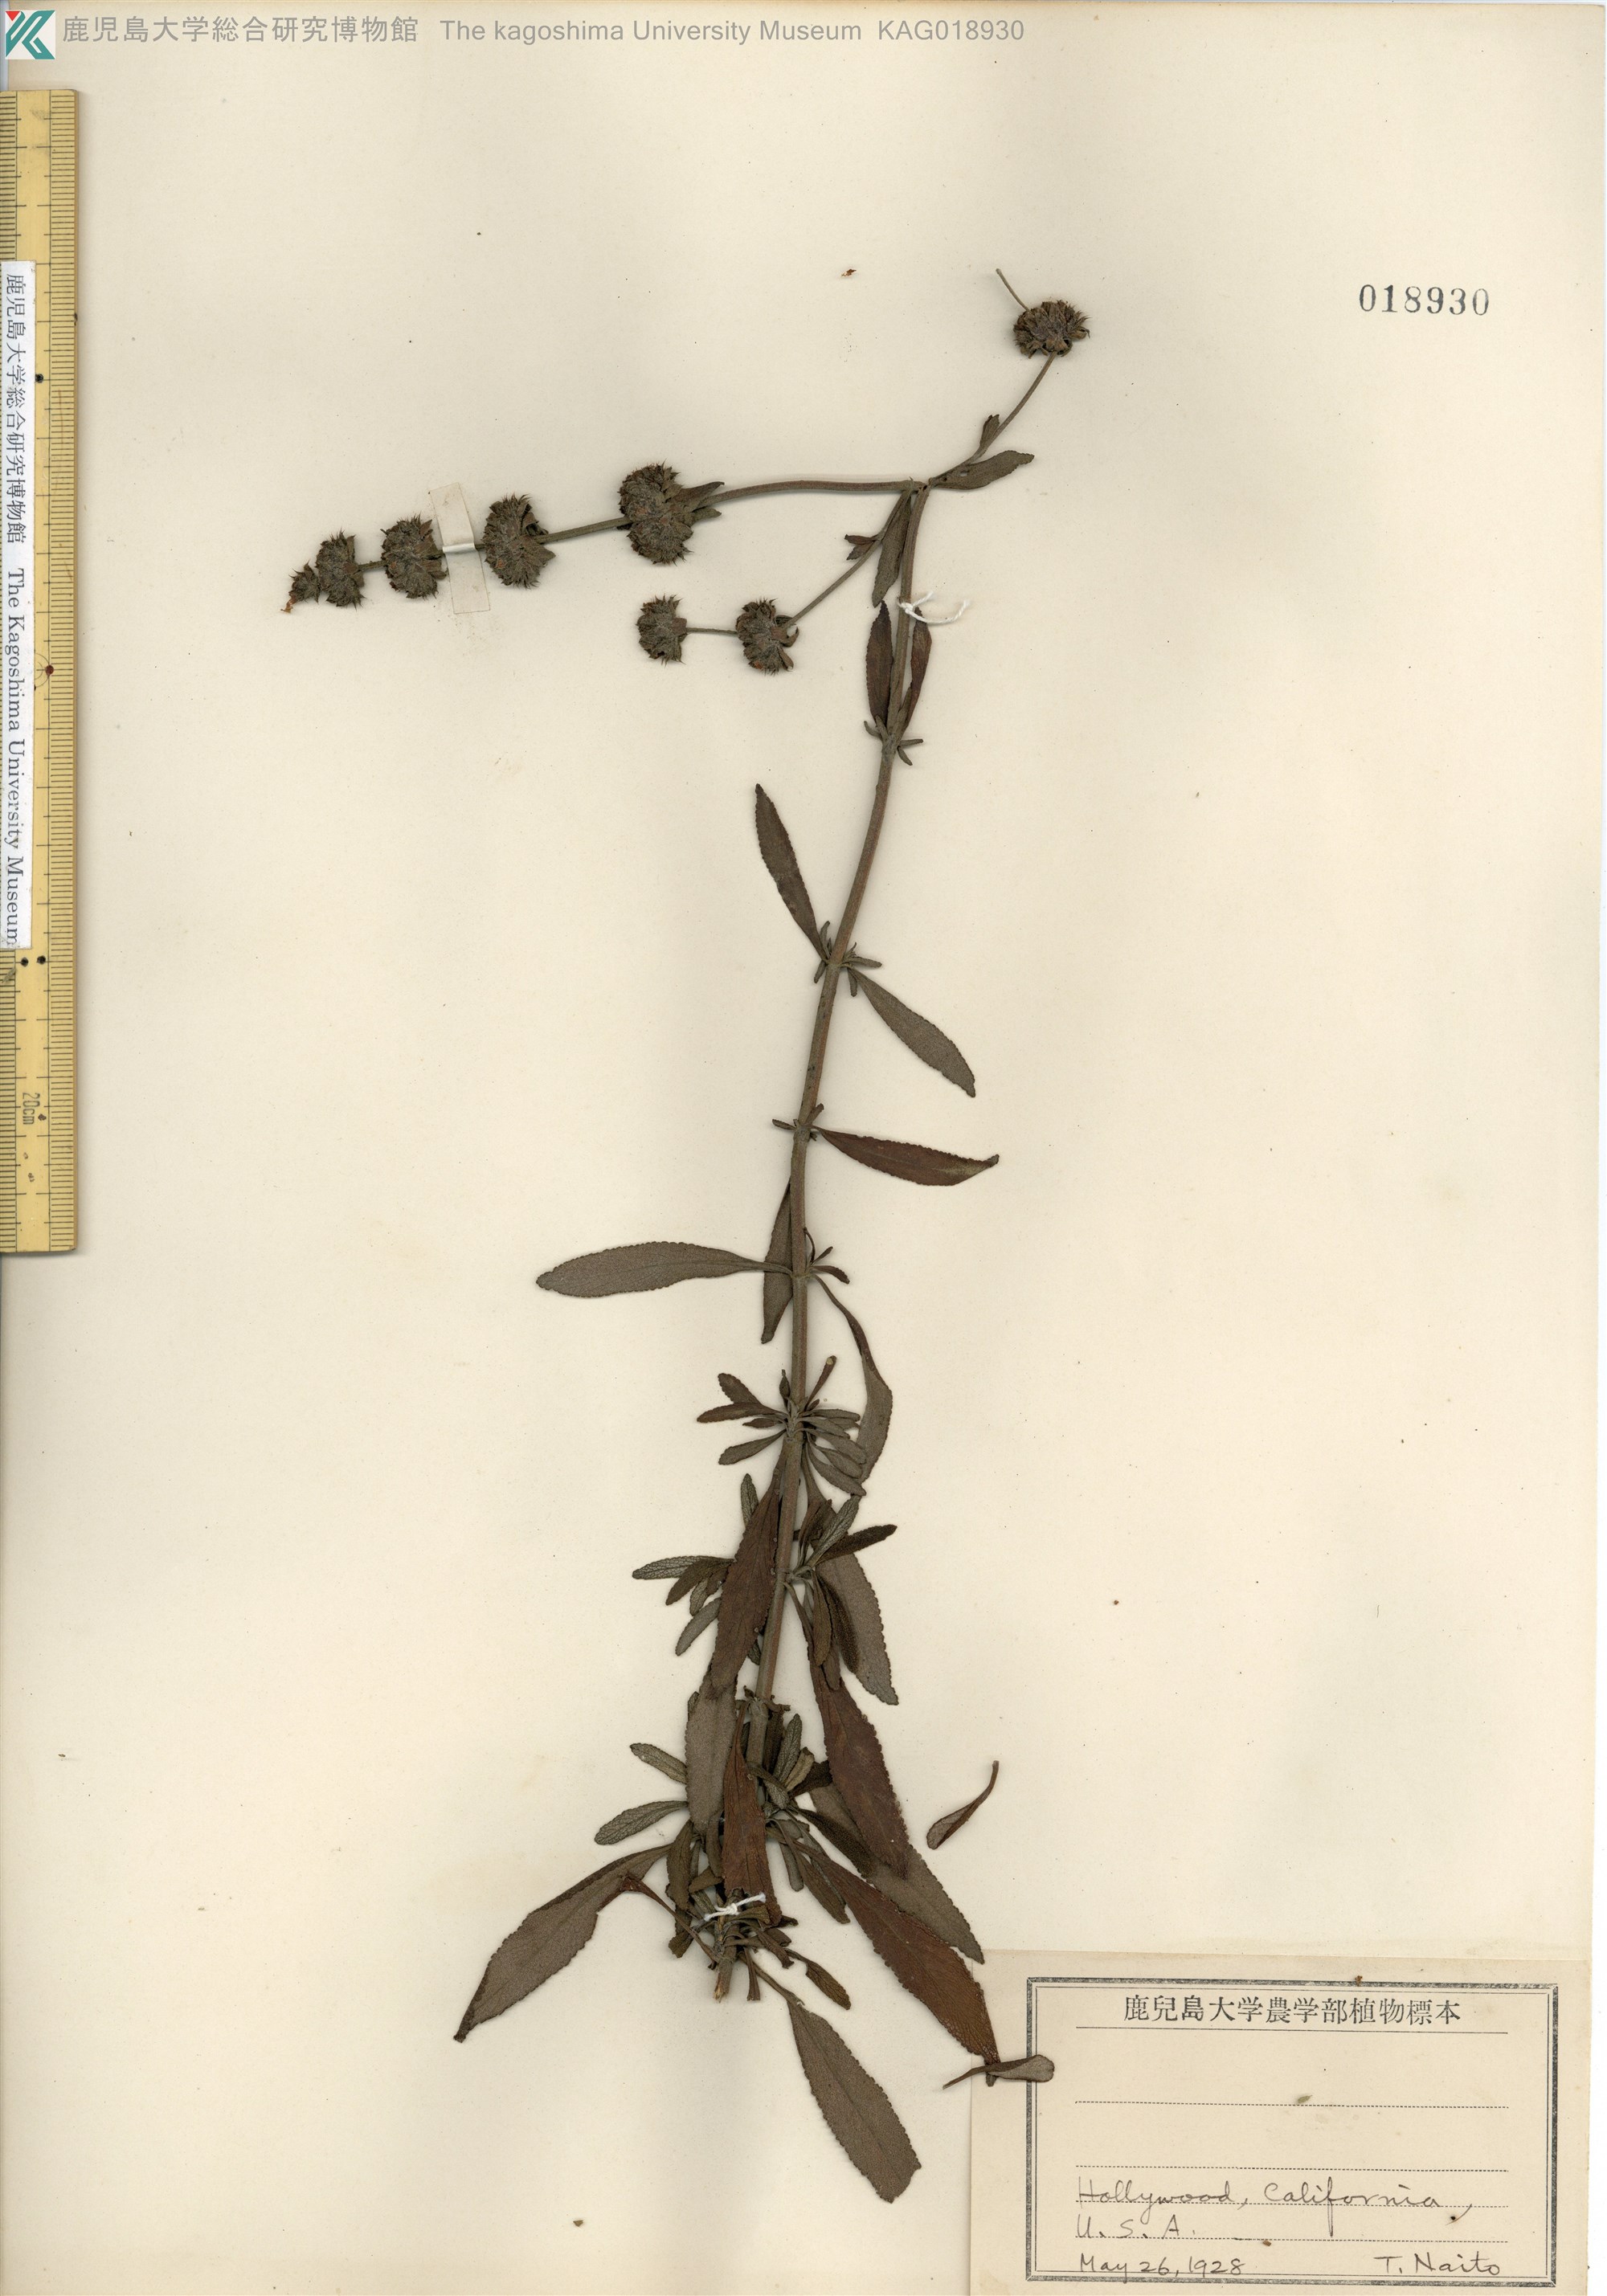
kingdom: Plantae
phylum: Tracheophyta
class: Magnoliopsida
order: Lamiales
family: Lamiaceae
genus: Salvia
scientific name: Salvia mellifera
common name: Black sage
